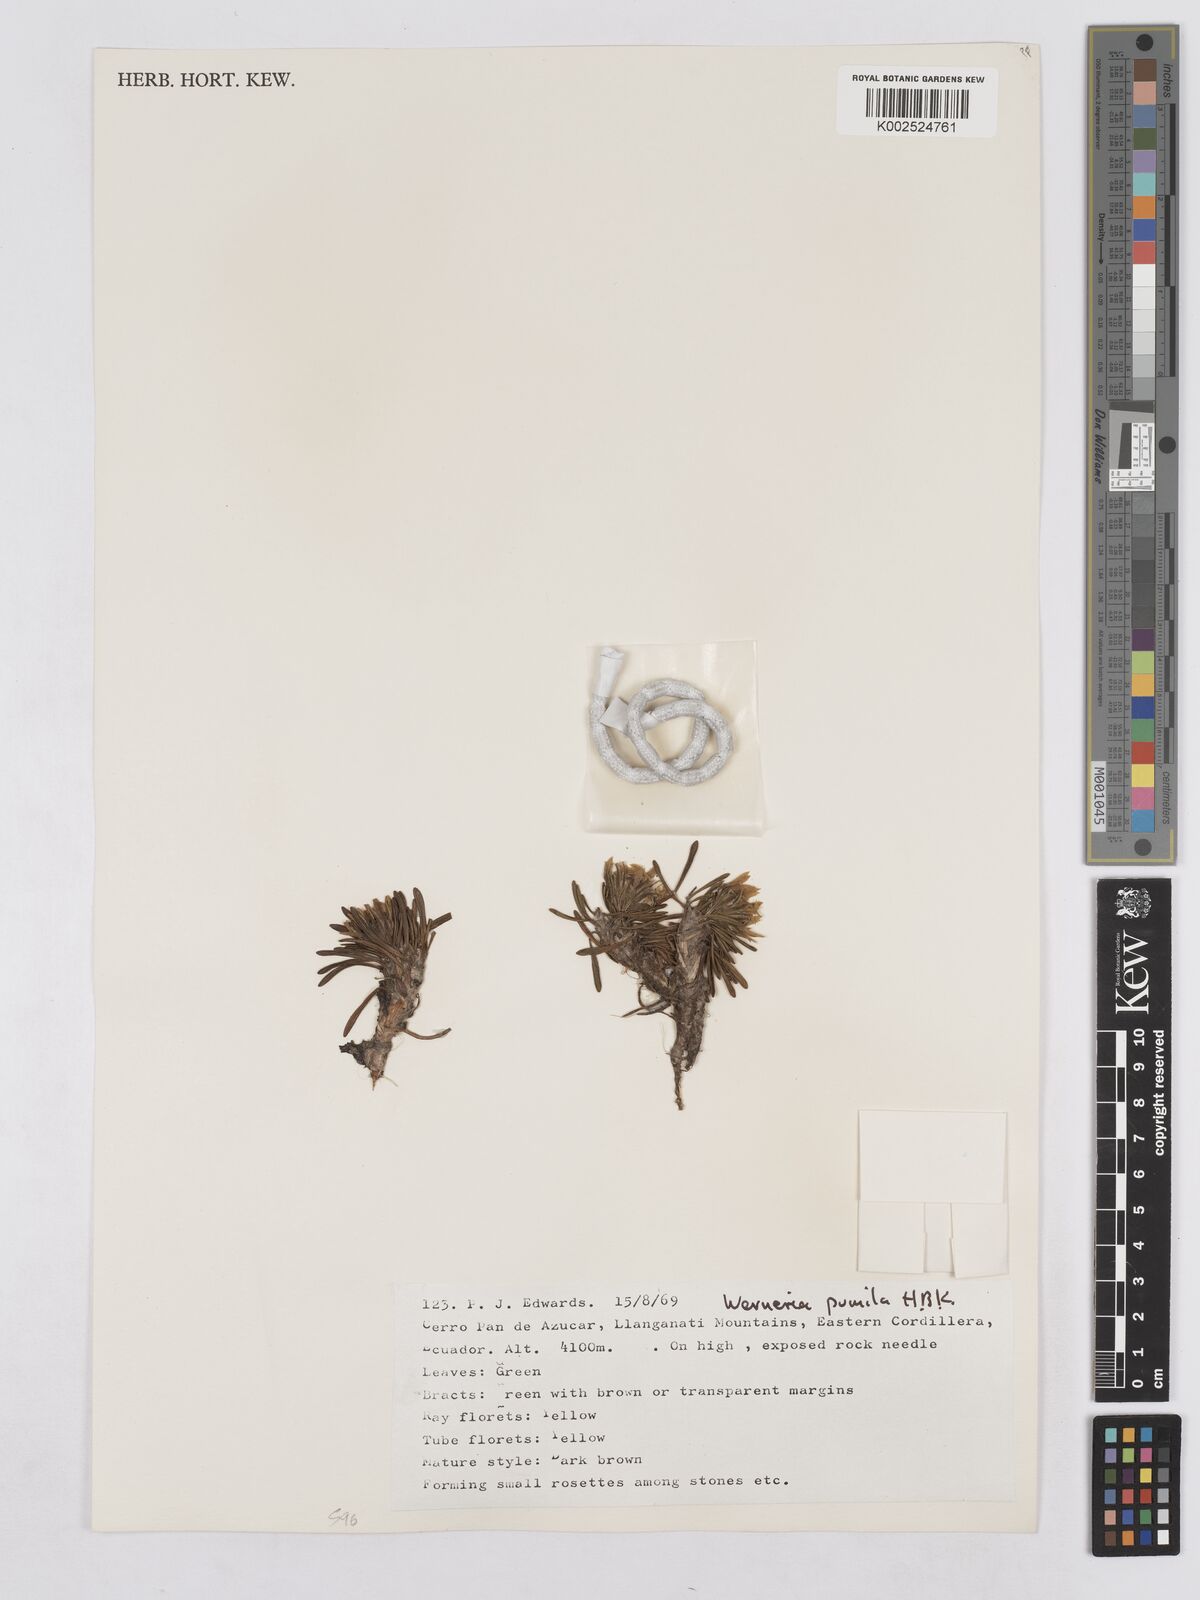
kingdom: Plantae
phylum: Tracheophyta
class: Magnoliopsida
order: Asterales
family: Asteraceae
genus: Rockhausenia
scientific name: Rockhausenia pumila
